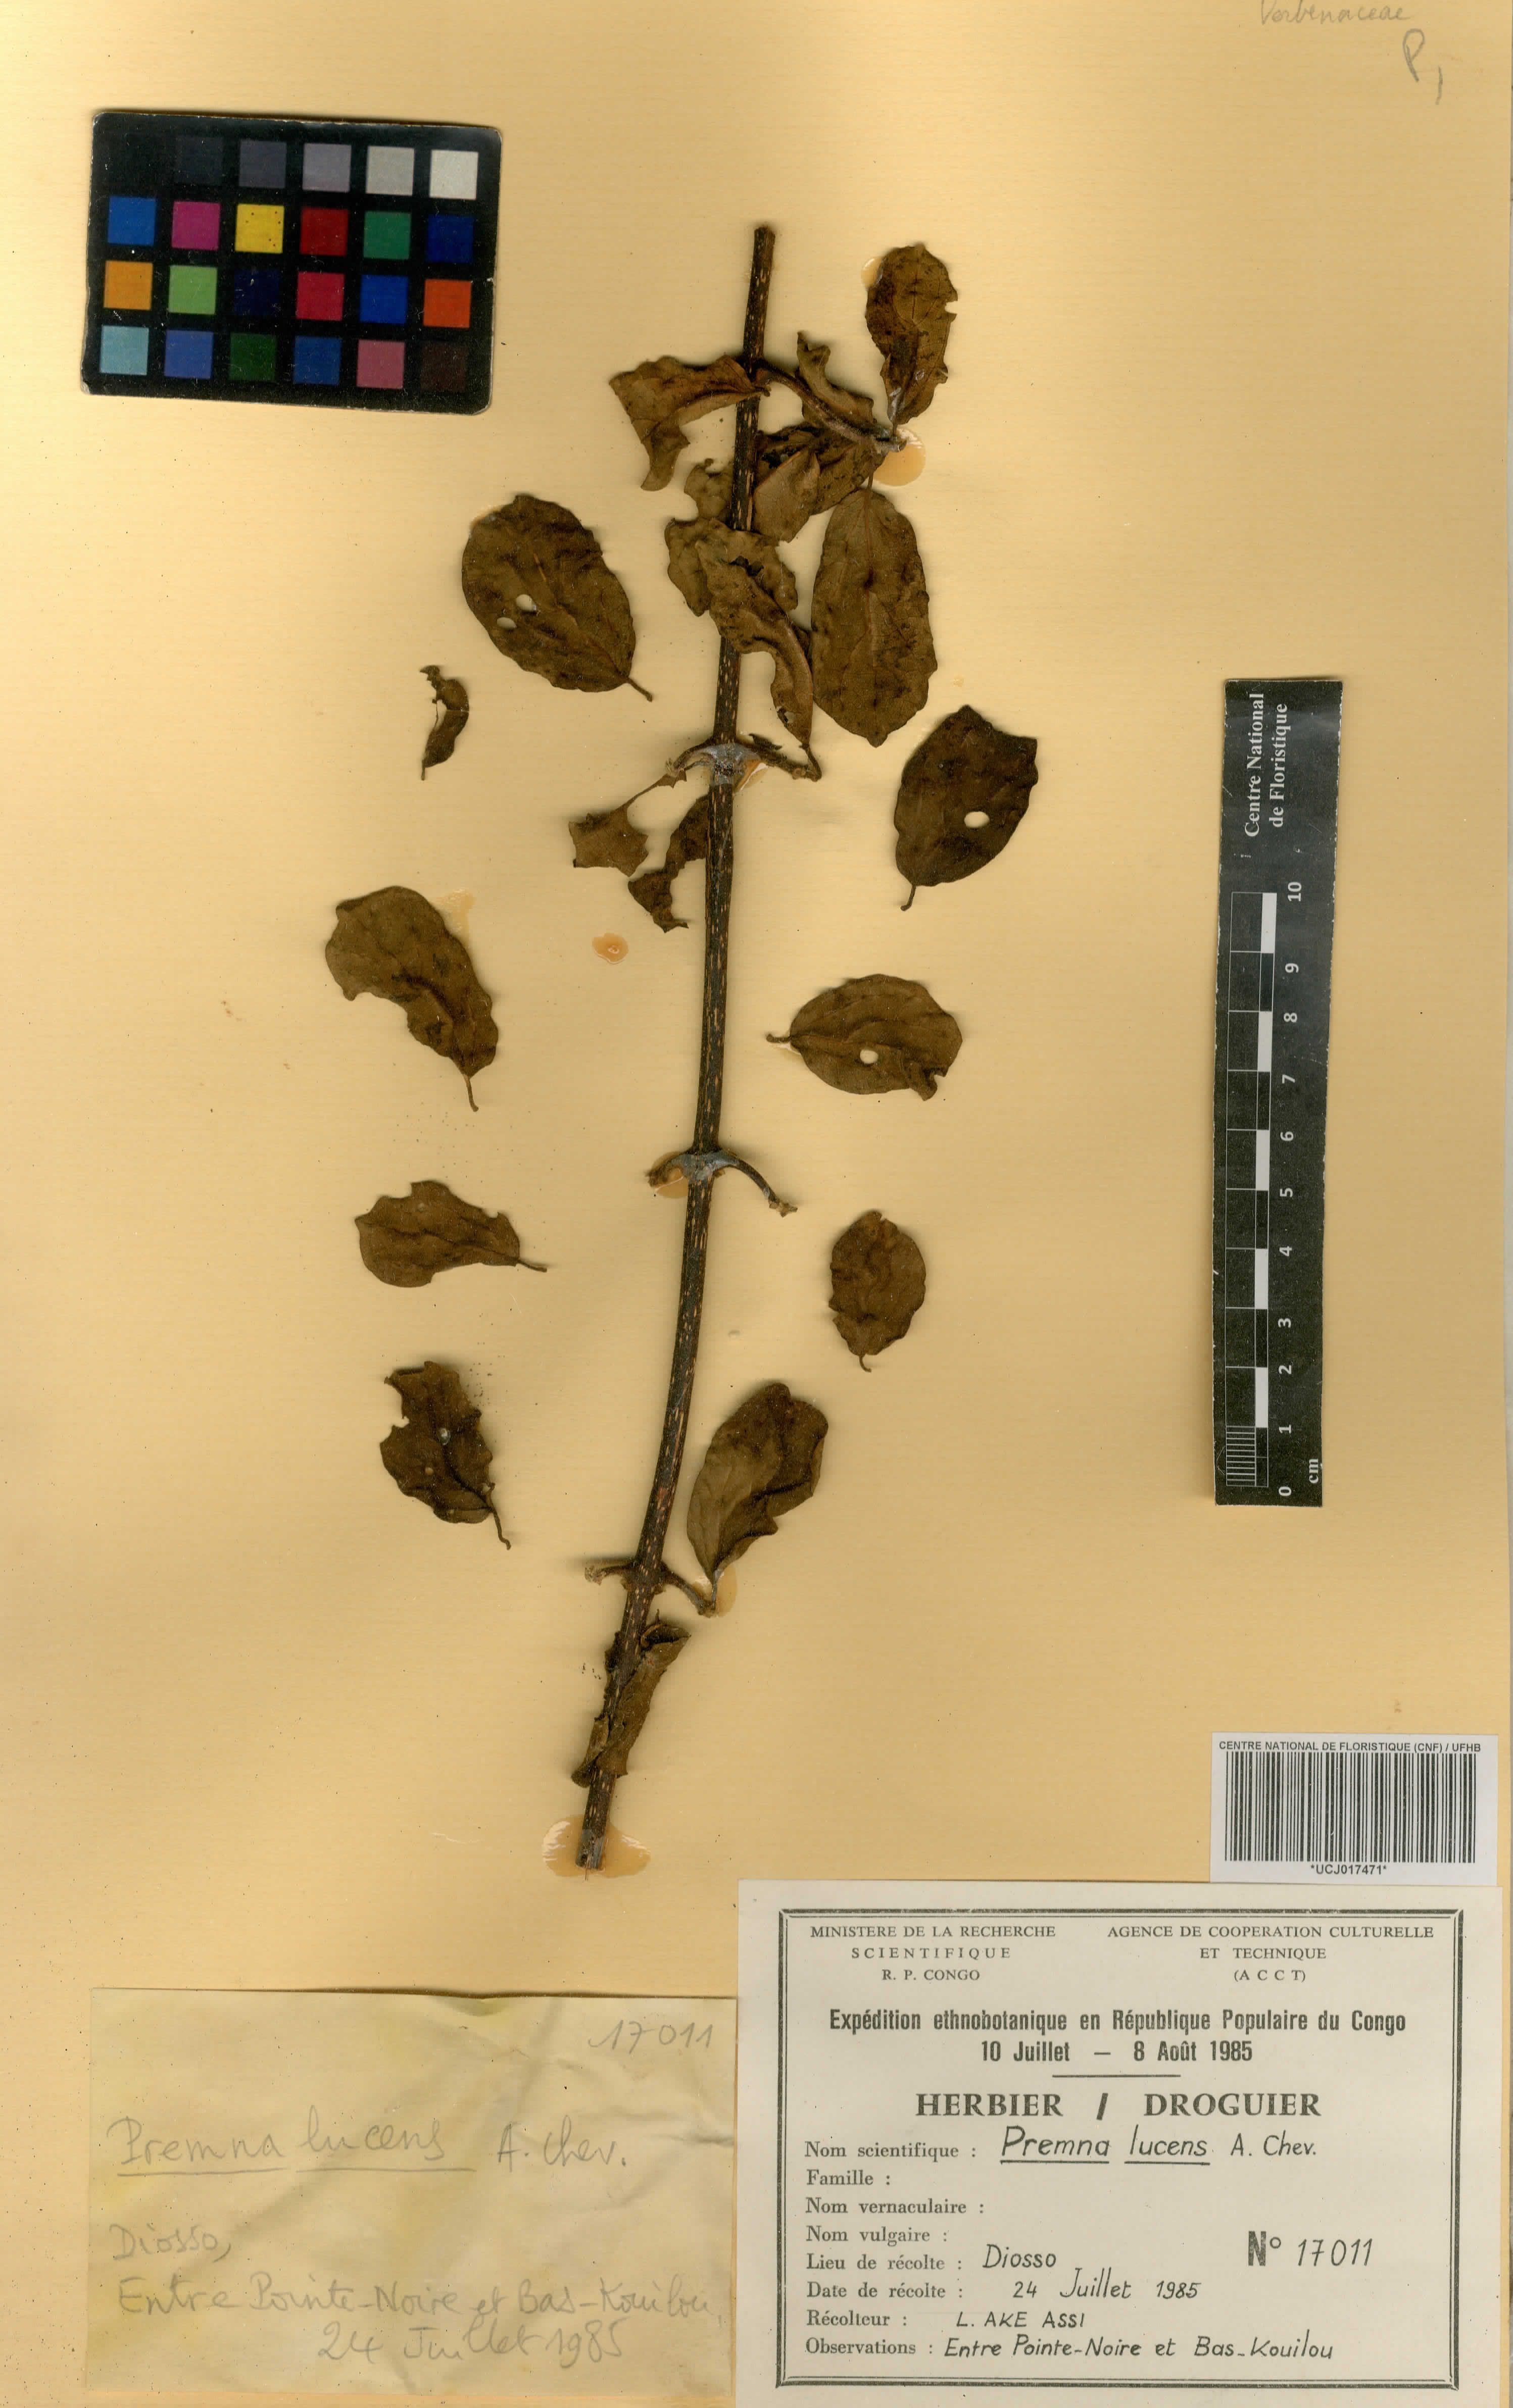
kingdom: Plantae
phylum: Tracheophyta
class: Magnoliopsida
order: Lamiales
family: Lamiaceae
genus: Premna
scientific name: Premna lucens
